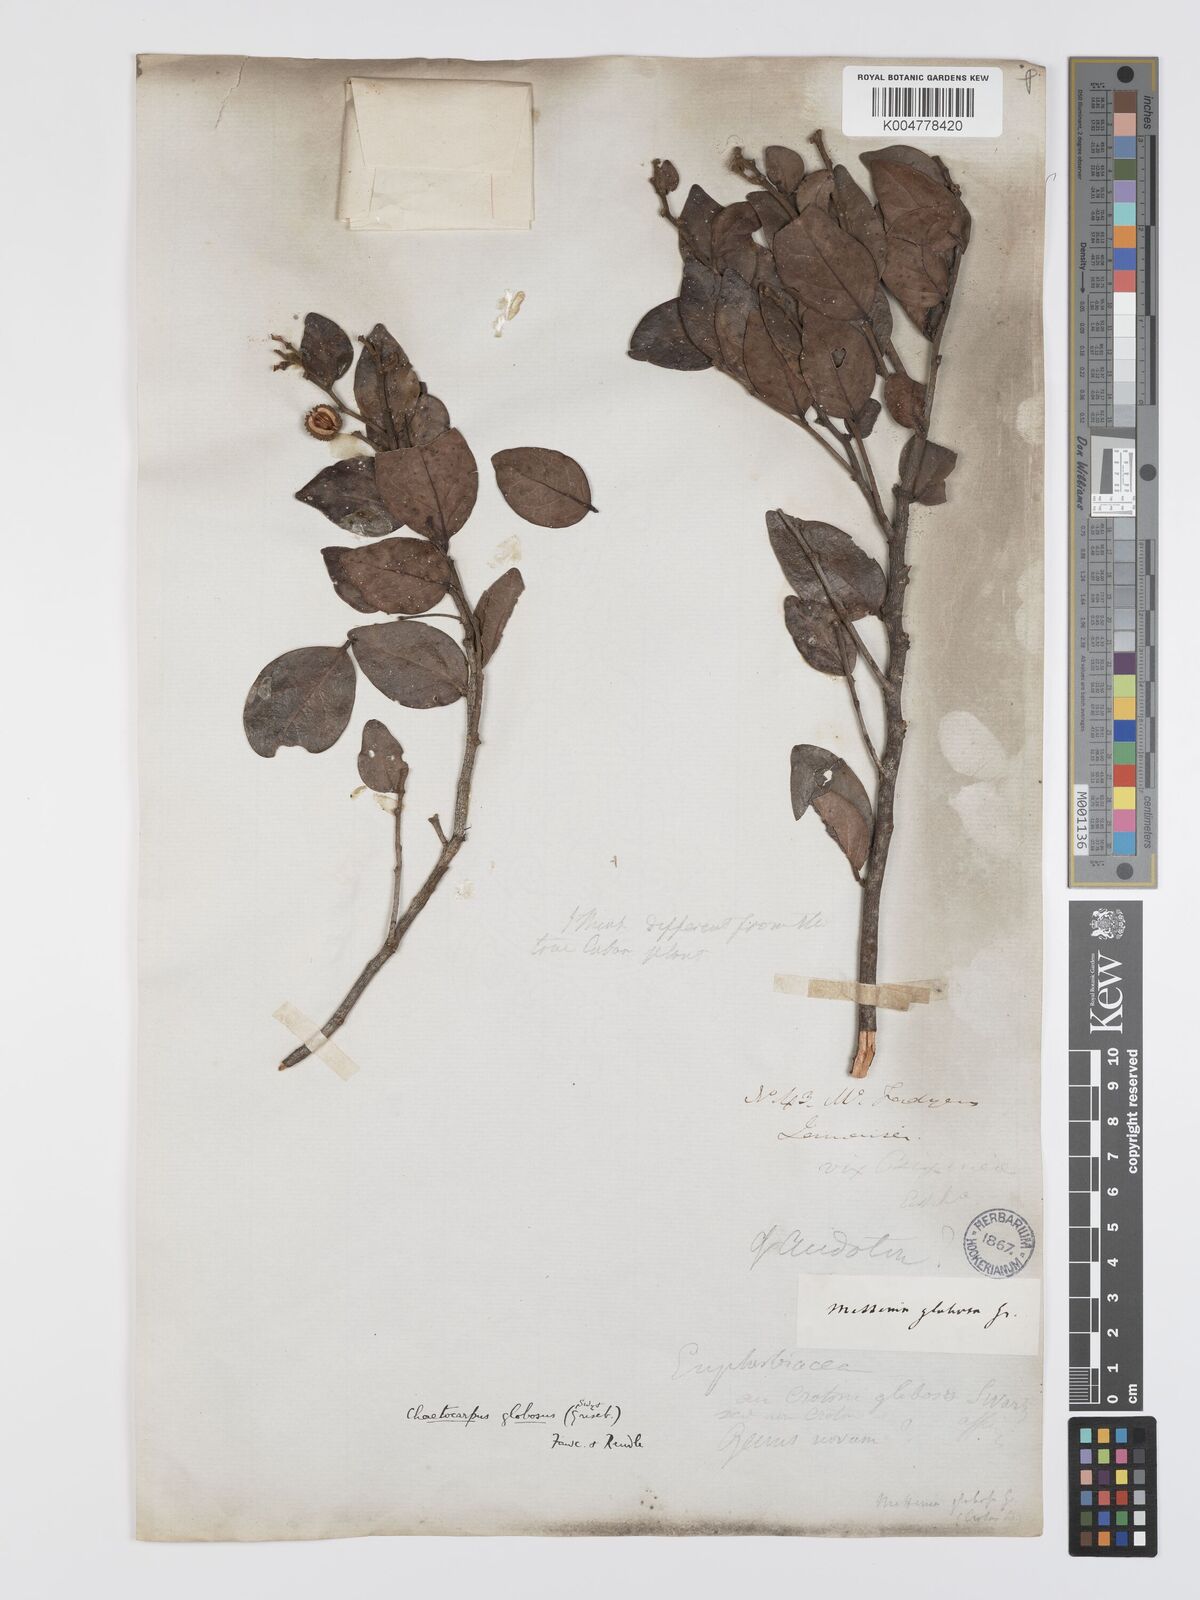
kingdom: Plantae
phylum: Tracheophyta
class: Magnoliopsida
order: Malpighiales
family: Peraceae
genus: Chaetocarpus
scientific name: Chaetocarpus globosus
